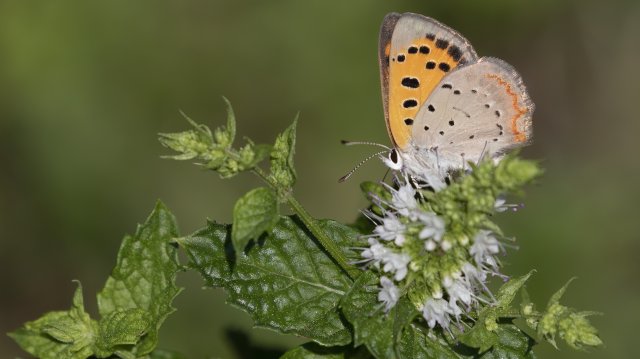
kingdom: Animalia
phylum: Arthropoda
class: Insecta
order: Lepidoptera
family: Lycaenidae
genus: Lycaena
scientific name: Lycaena phlaeas
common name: American Copper
